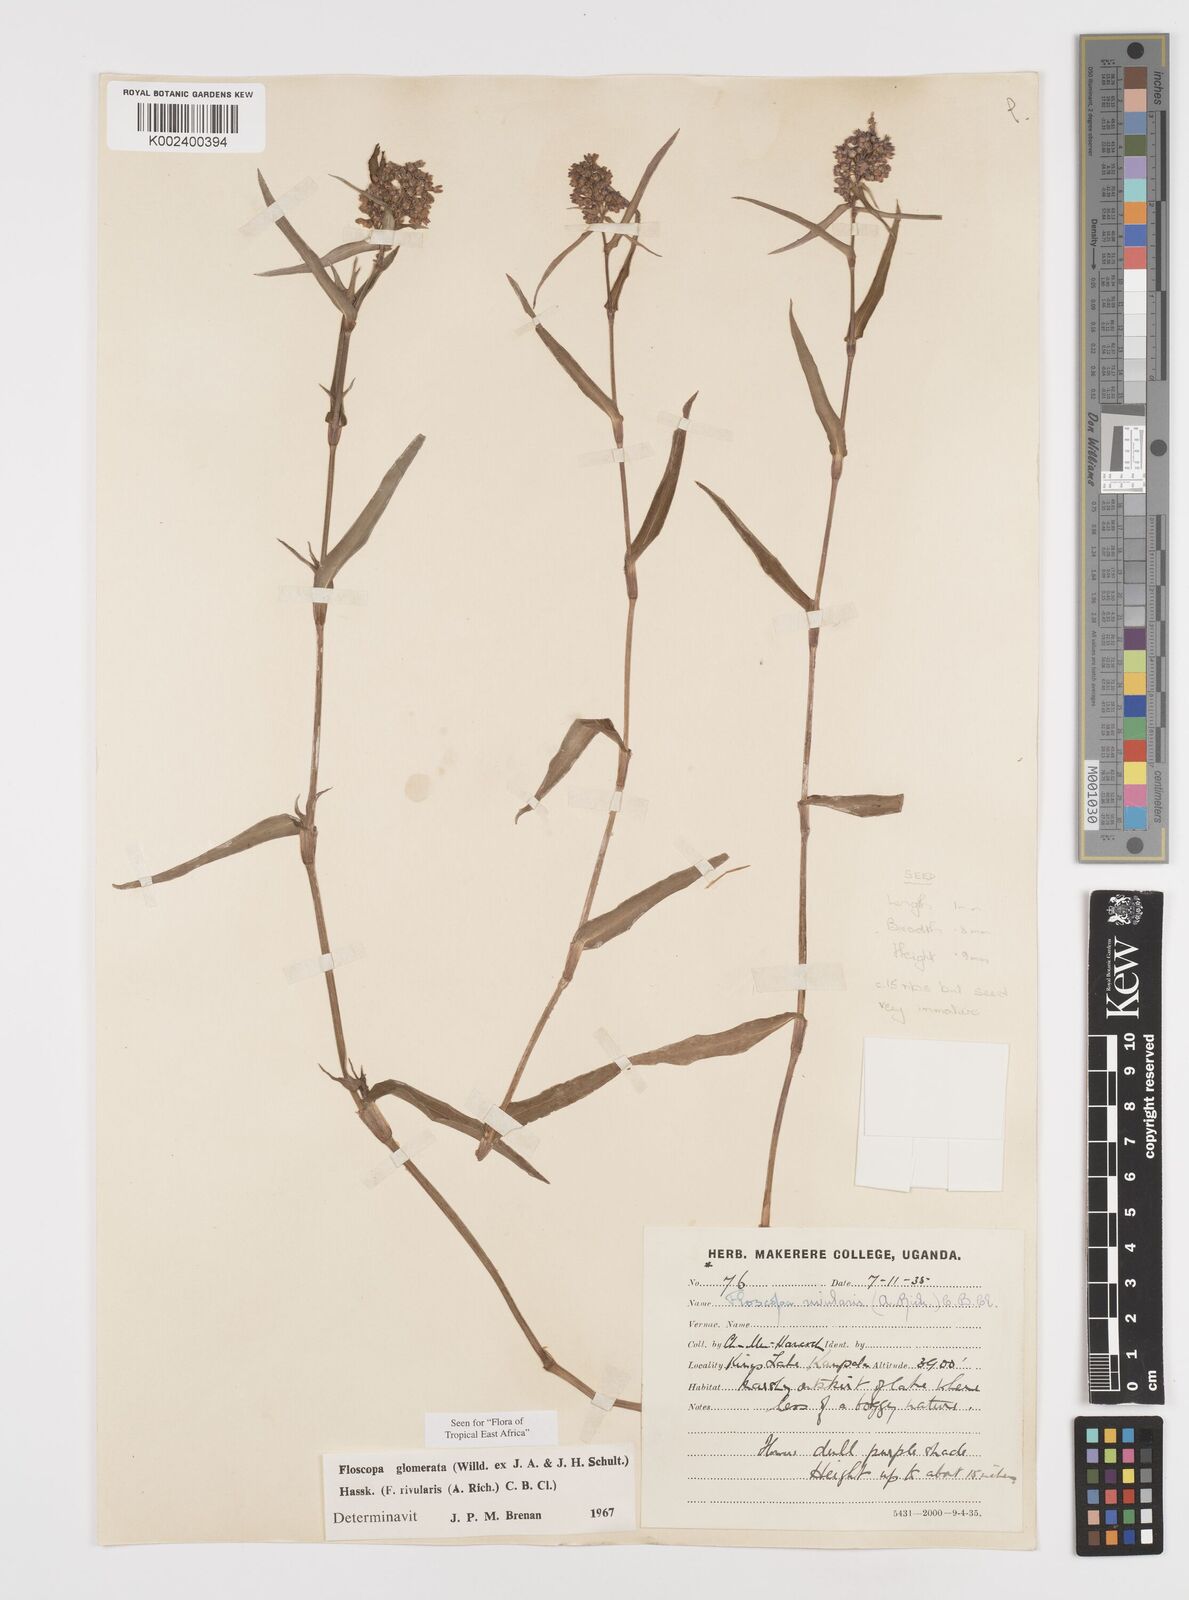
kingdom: Plantae
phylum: Tracheophyta
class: Liliopsida
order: Commelinales
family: Commelinaceae
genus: Floscopa
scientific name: Floscopa glomerata
